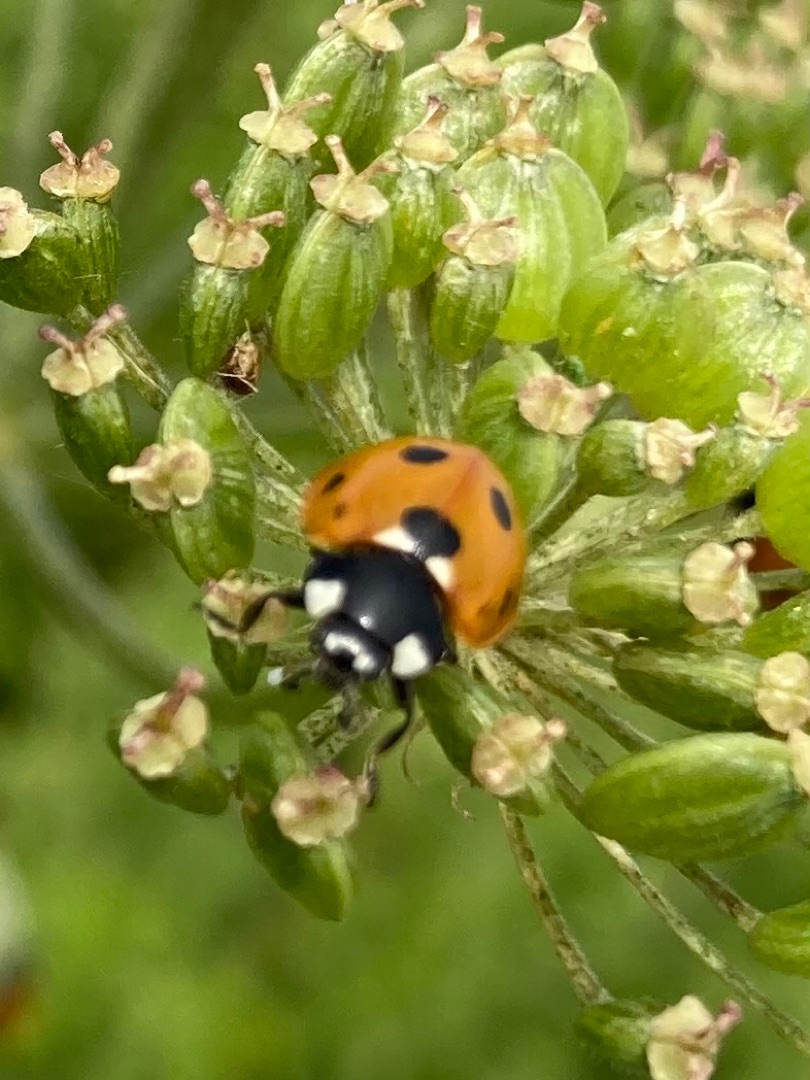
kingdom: Animalia
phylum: Arthropoda
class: Insecta
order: Coleoptera
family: Coccinellidae
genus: Coccinella
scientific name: Coccinella septempunctata
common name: Syvplettet mariehøne
